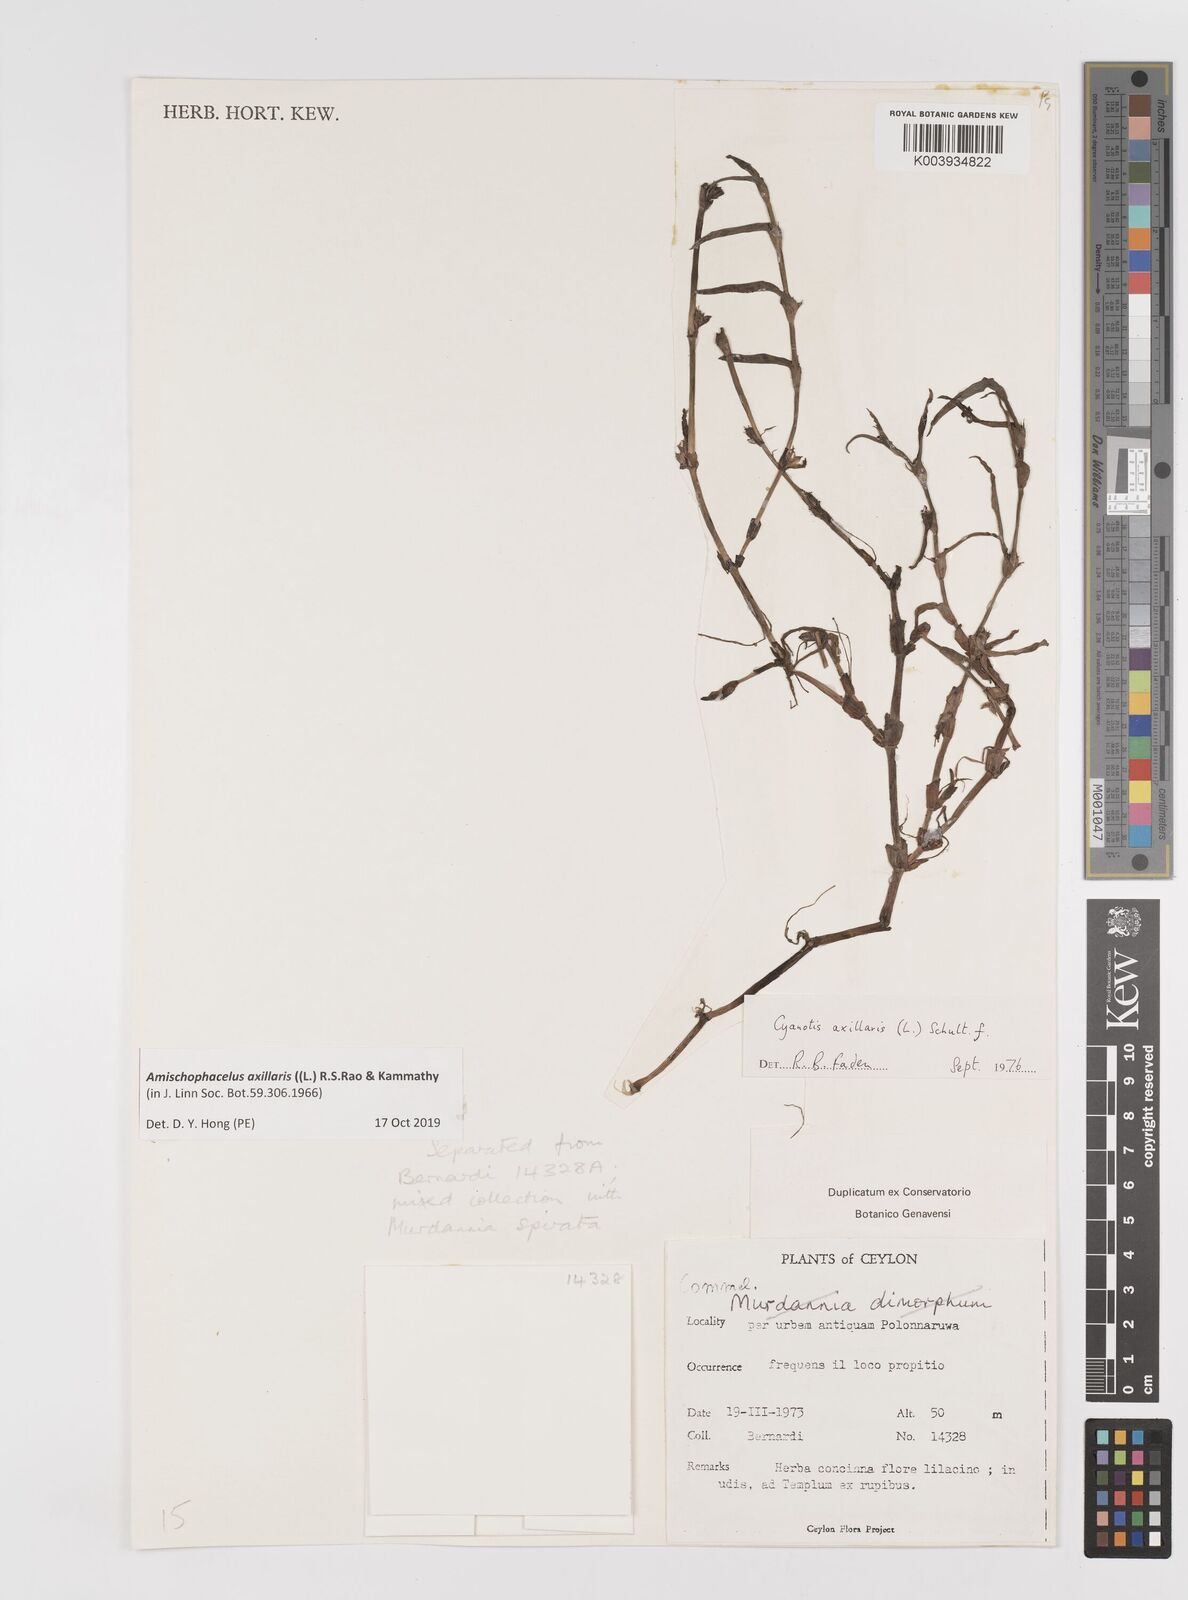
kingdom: Plantae
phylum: Tracheophyta
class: Liliopsida
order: Commelinales
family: Commelinaceae
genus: Cyanotis
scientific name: Cyanotis axillaris
